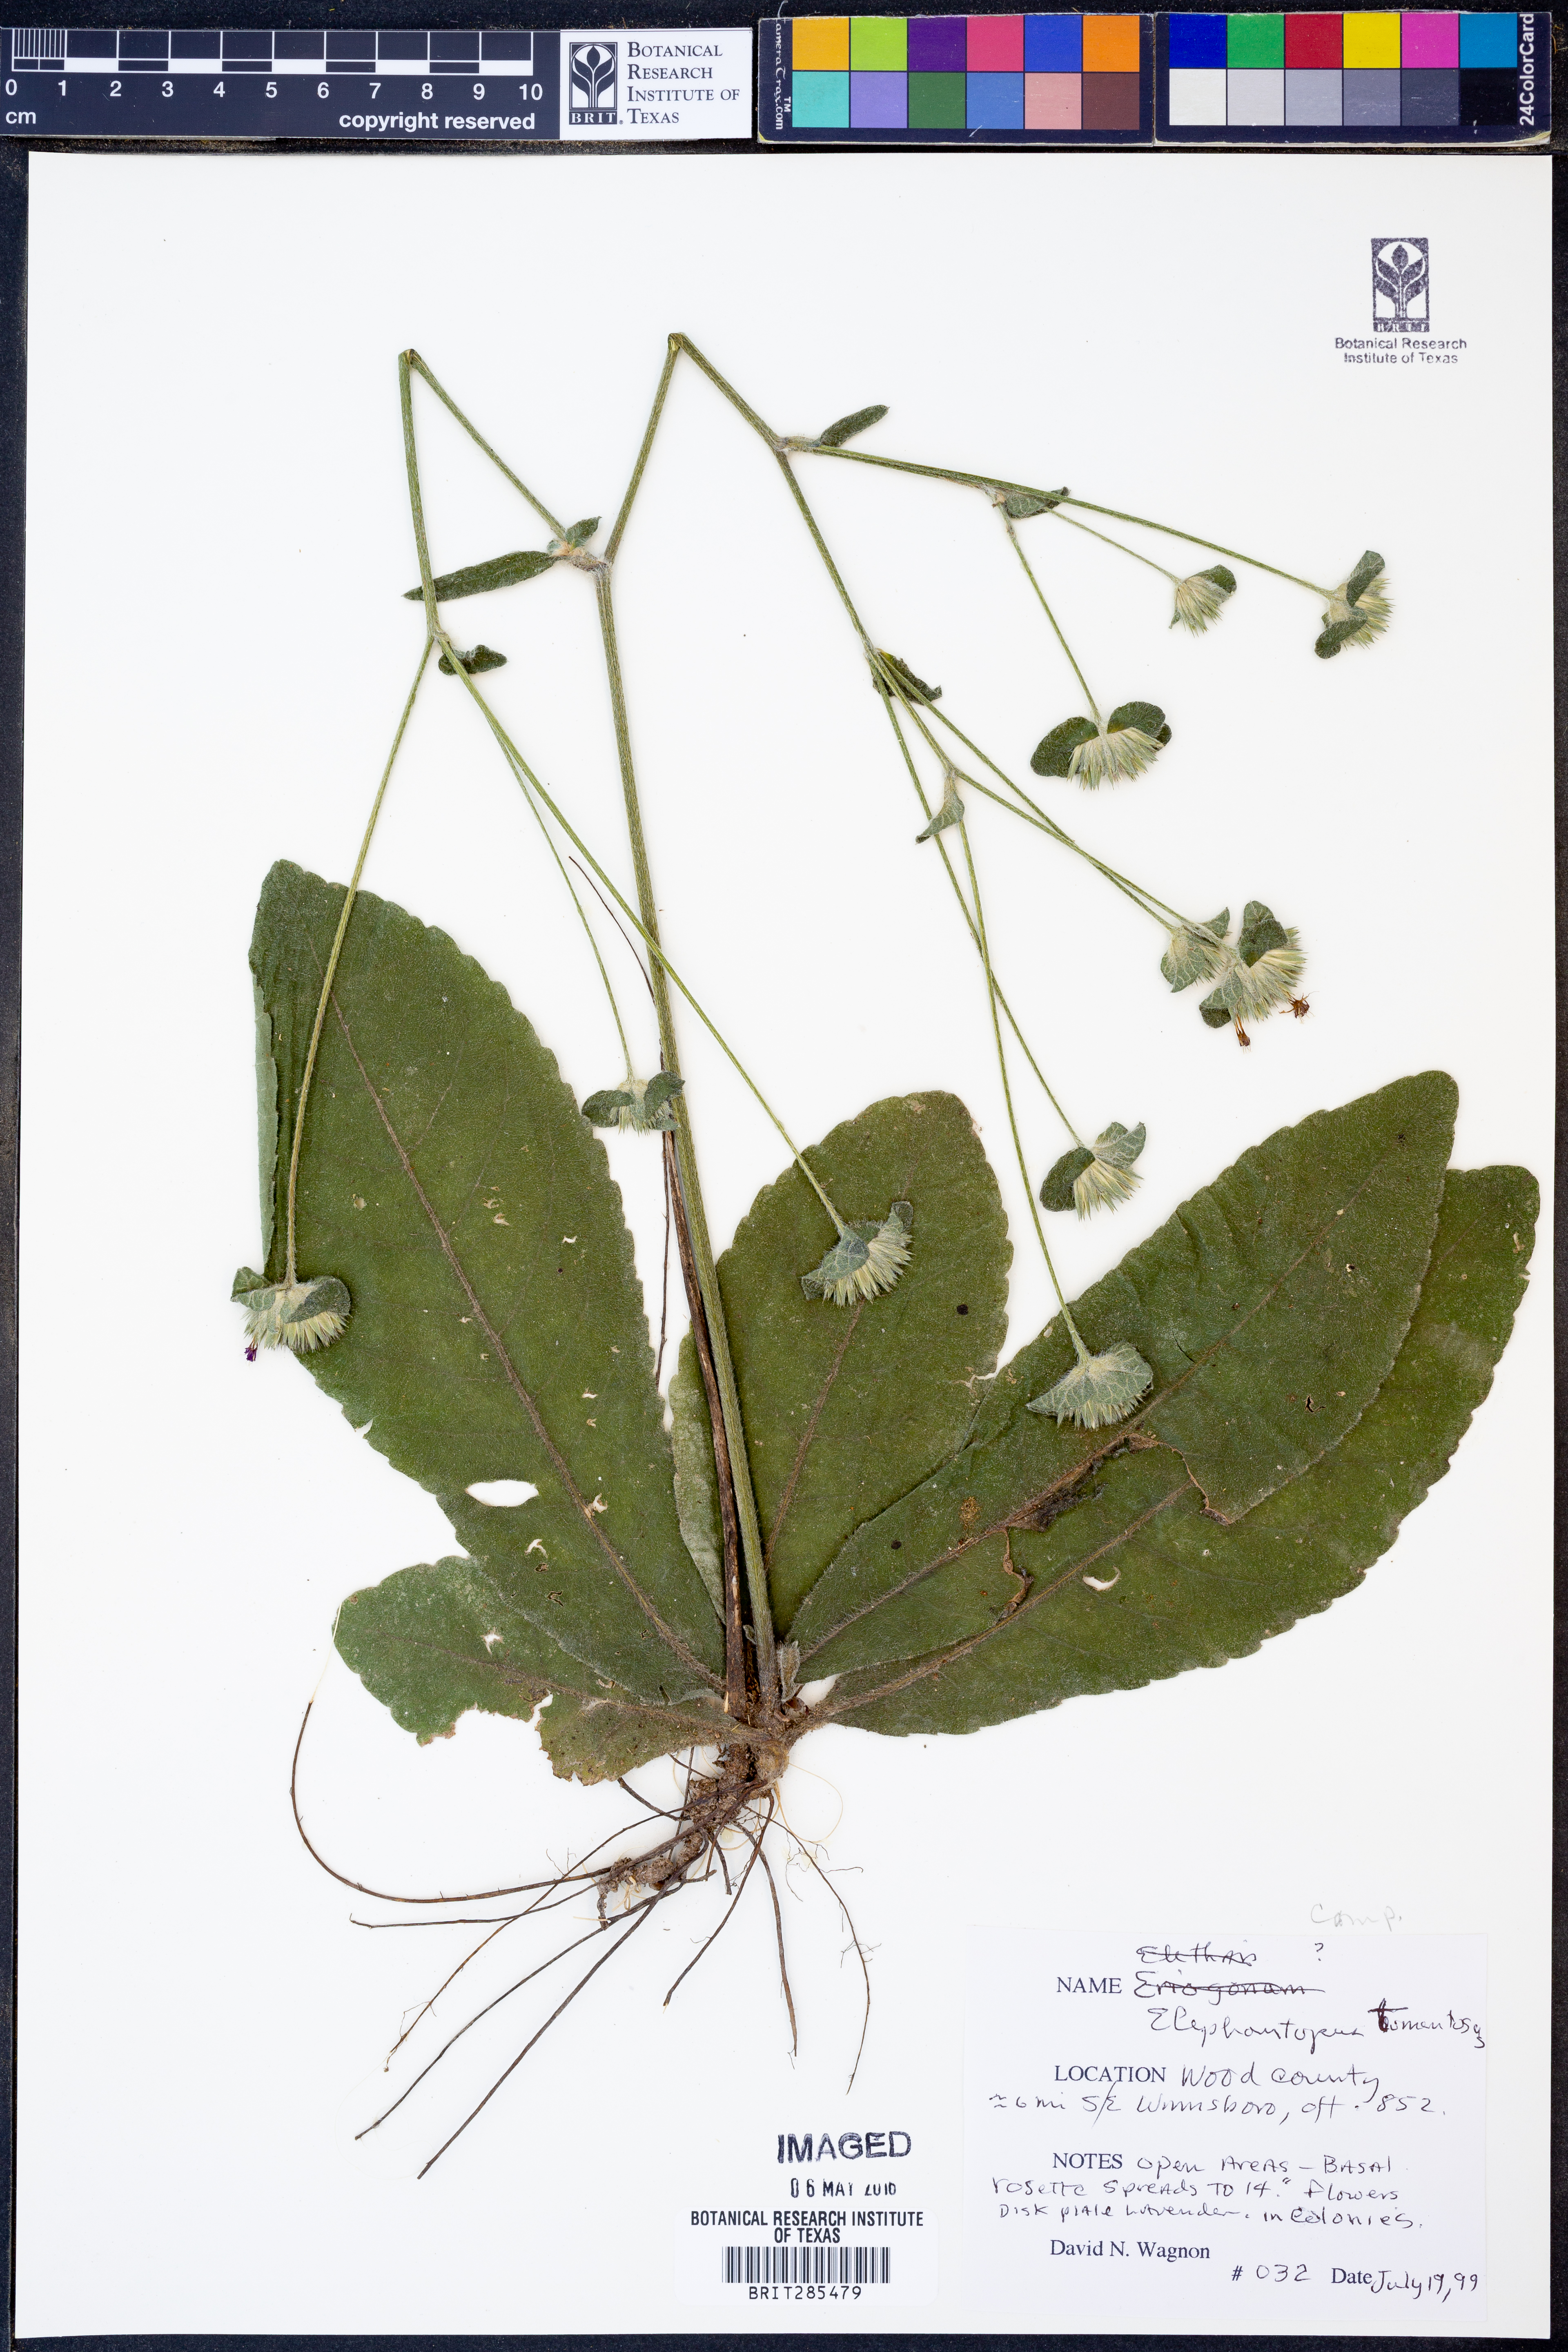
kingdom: Plantae
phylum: Tracheophyta
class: Magnoliopsida
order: Asterales
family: Asteraceae
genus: Elephantopus
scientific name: Elephantopus tomentosus
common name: Tobacco-weed
